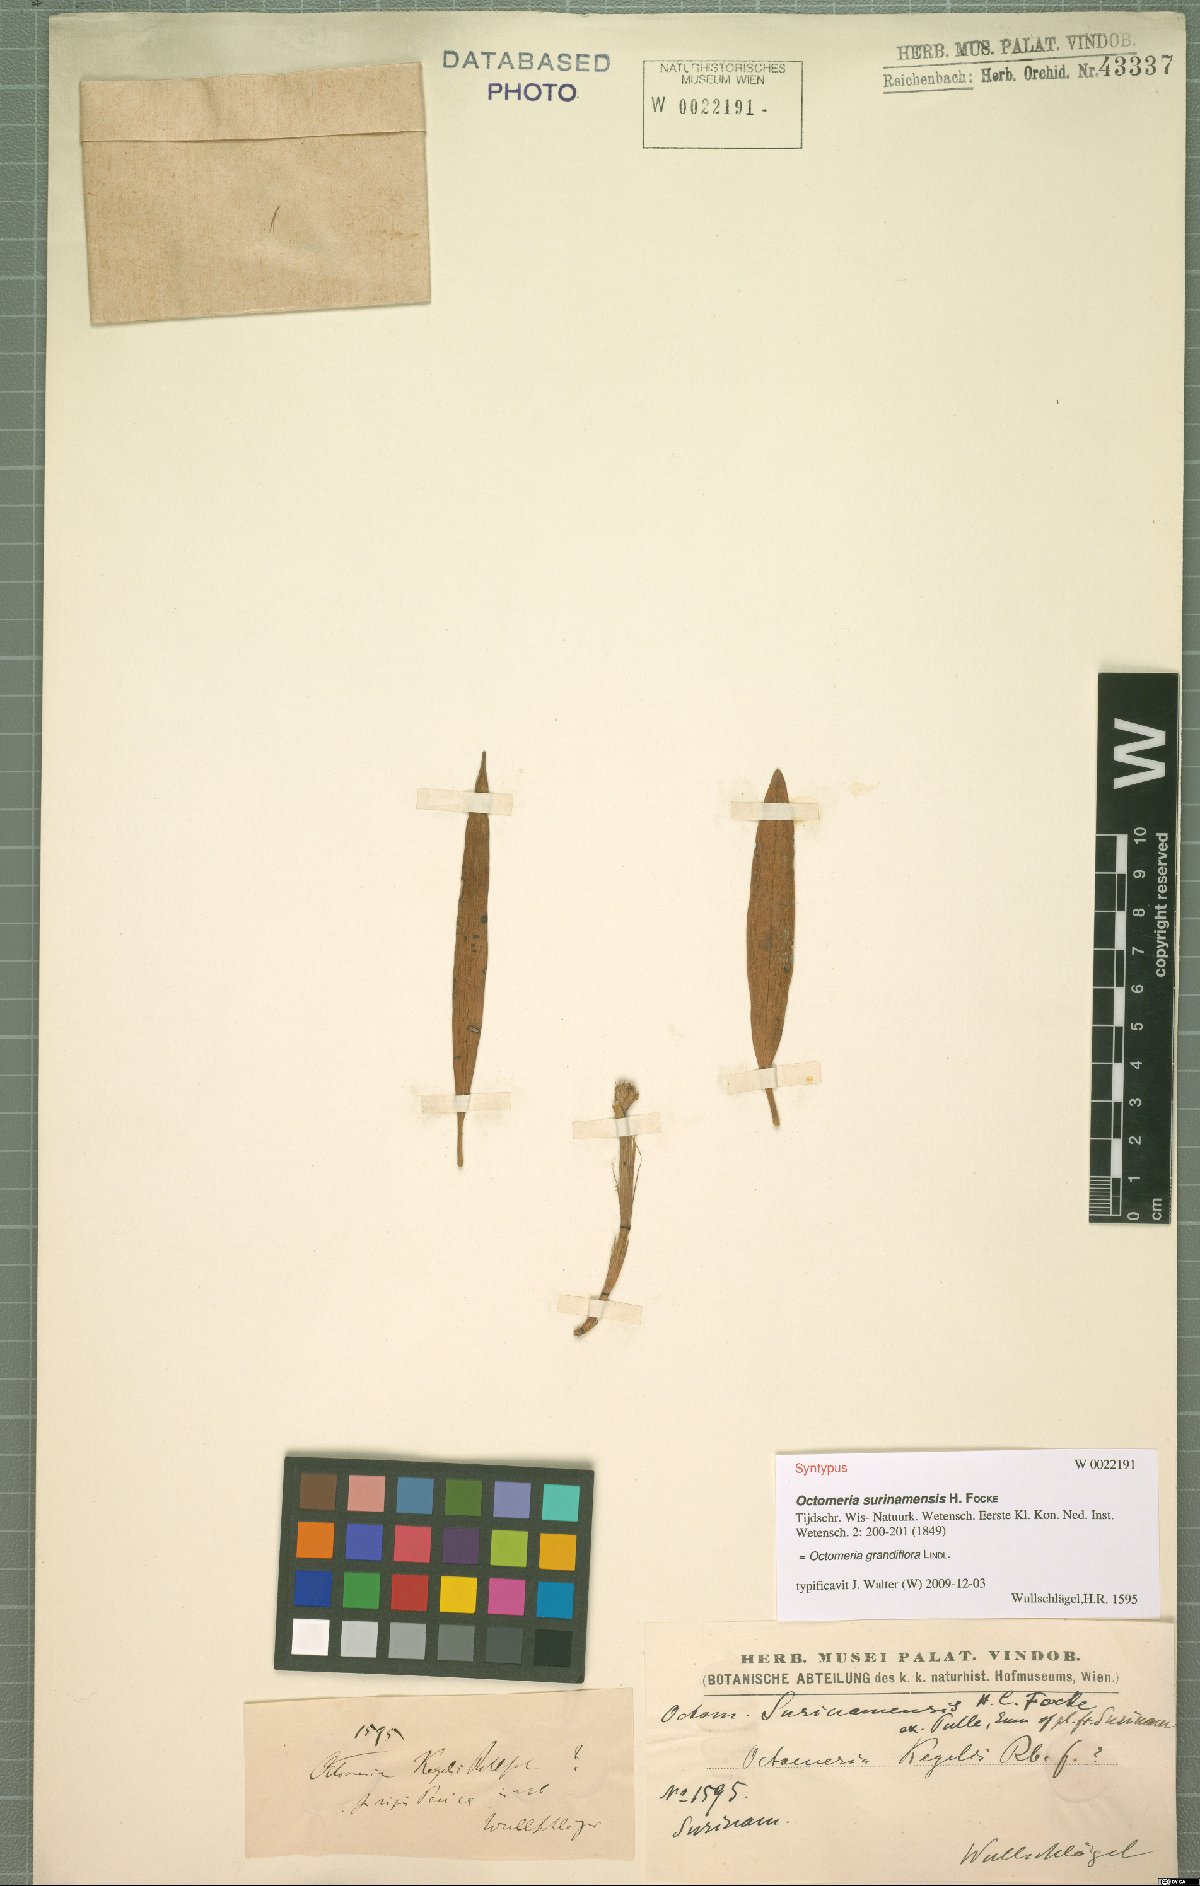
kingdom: Plantae
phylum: Tracheophyta
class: Liliopsida
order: Asparagales
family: Orchidaceae
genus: Octomeria
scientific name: Octomeria grandiflora
